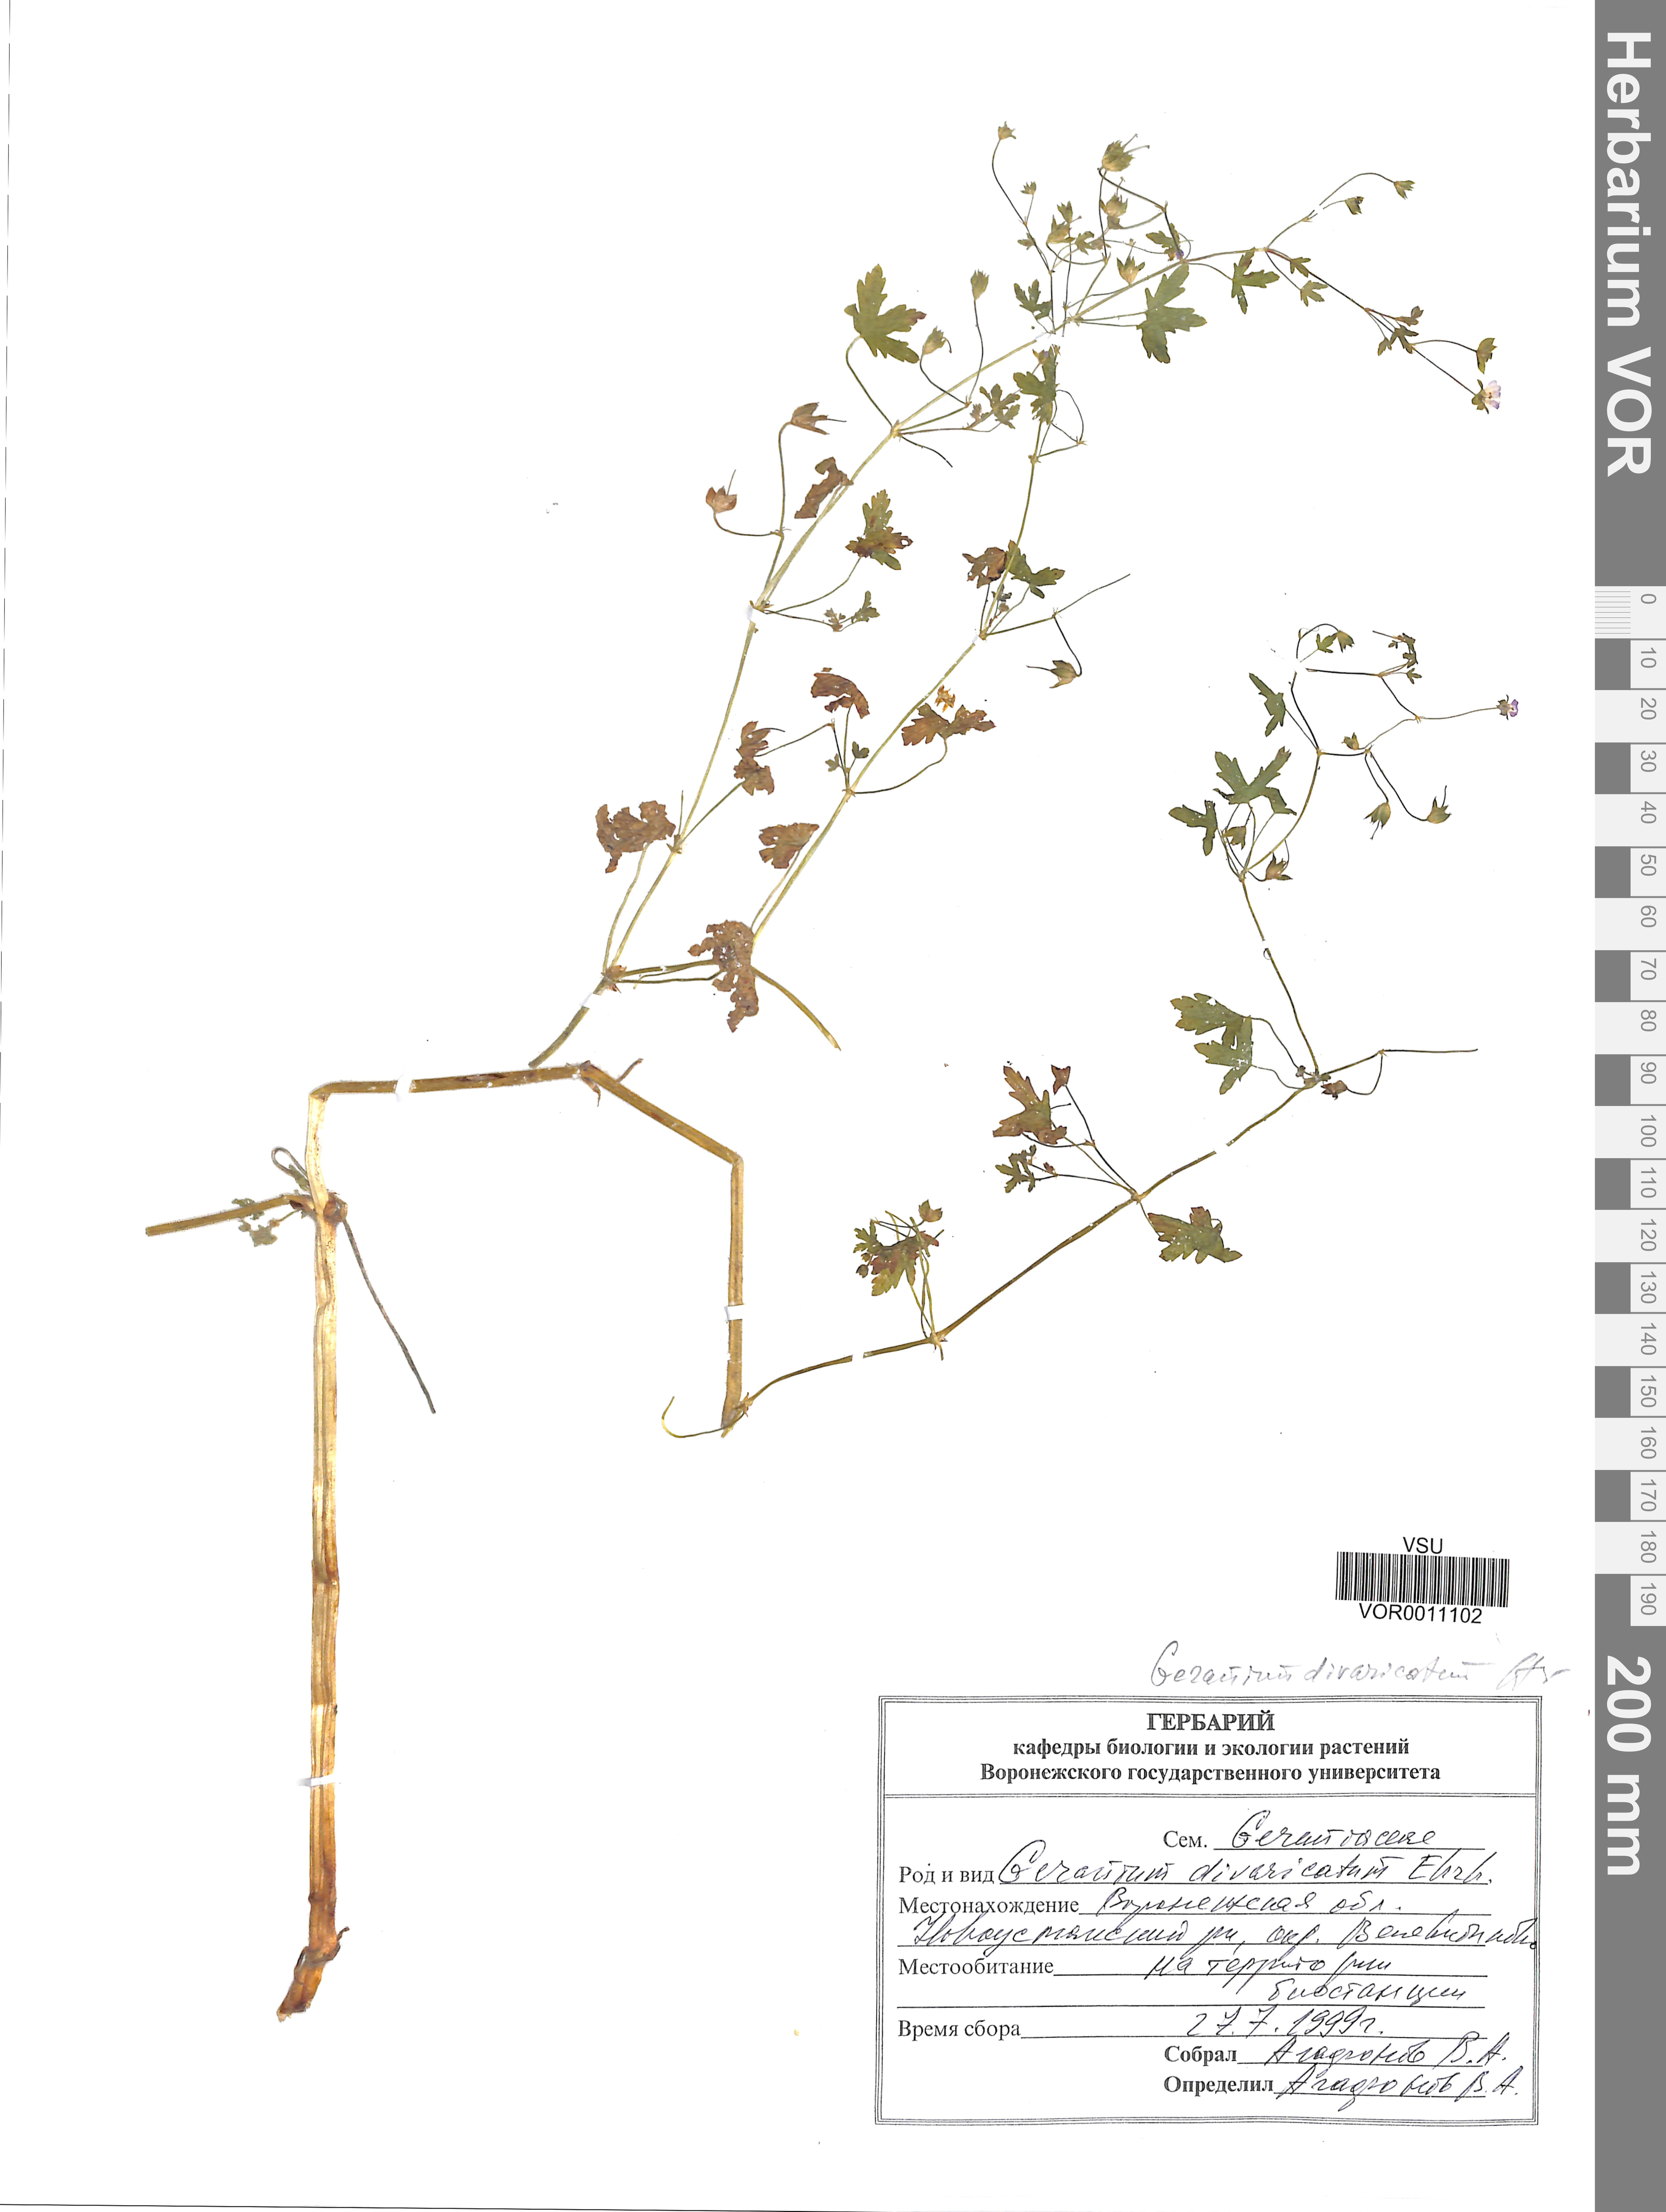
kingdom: Plantae
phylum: Tracheophyta
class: Magnoliopsida
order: Geraniales
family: Geraniaceae
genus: Geranium
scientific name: Geranium divaricatum
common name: Spreading crane's-bill
